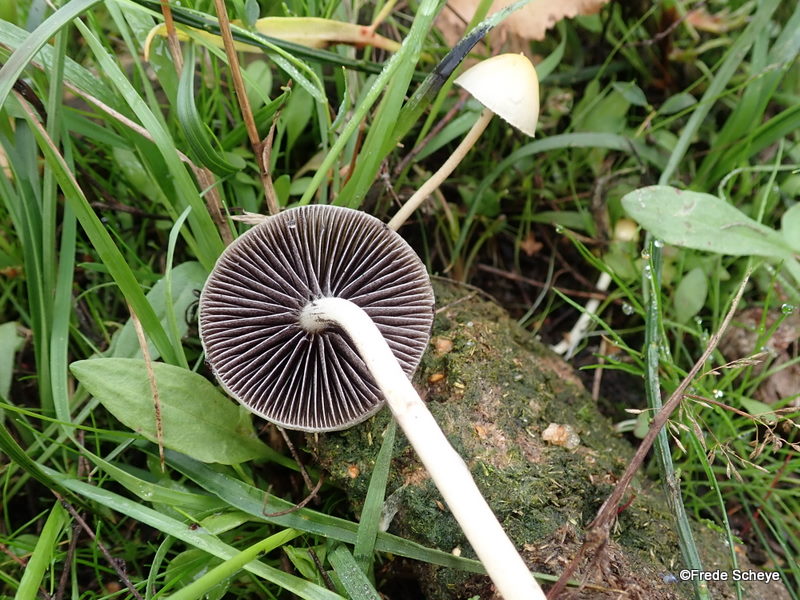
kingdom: Fungi
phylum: Basidiomycota
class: Agaricomycetes
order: Agaricales
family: Strophariaceae
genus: Protostropharia
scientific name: Protostropharia semiglobata
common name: halvkugleformet bredblad
